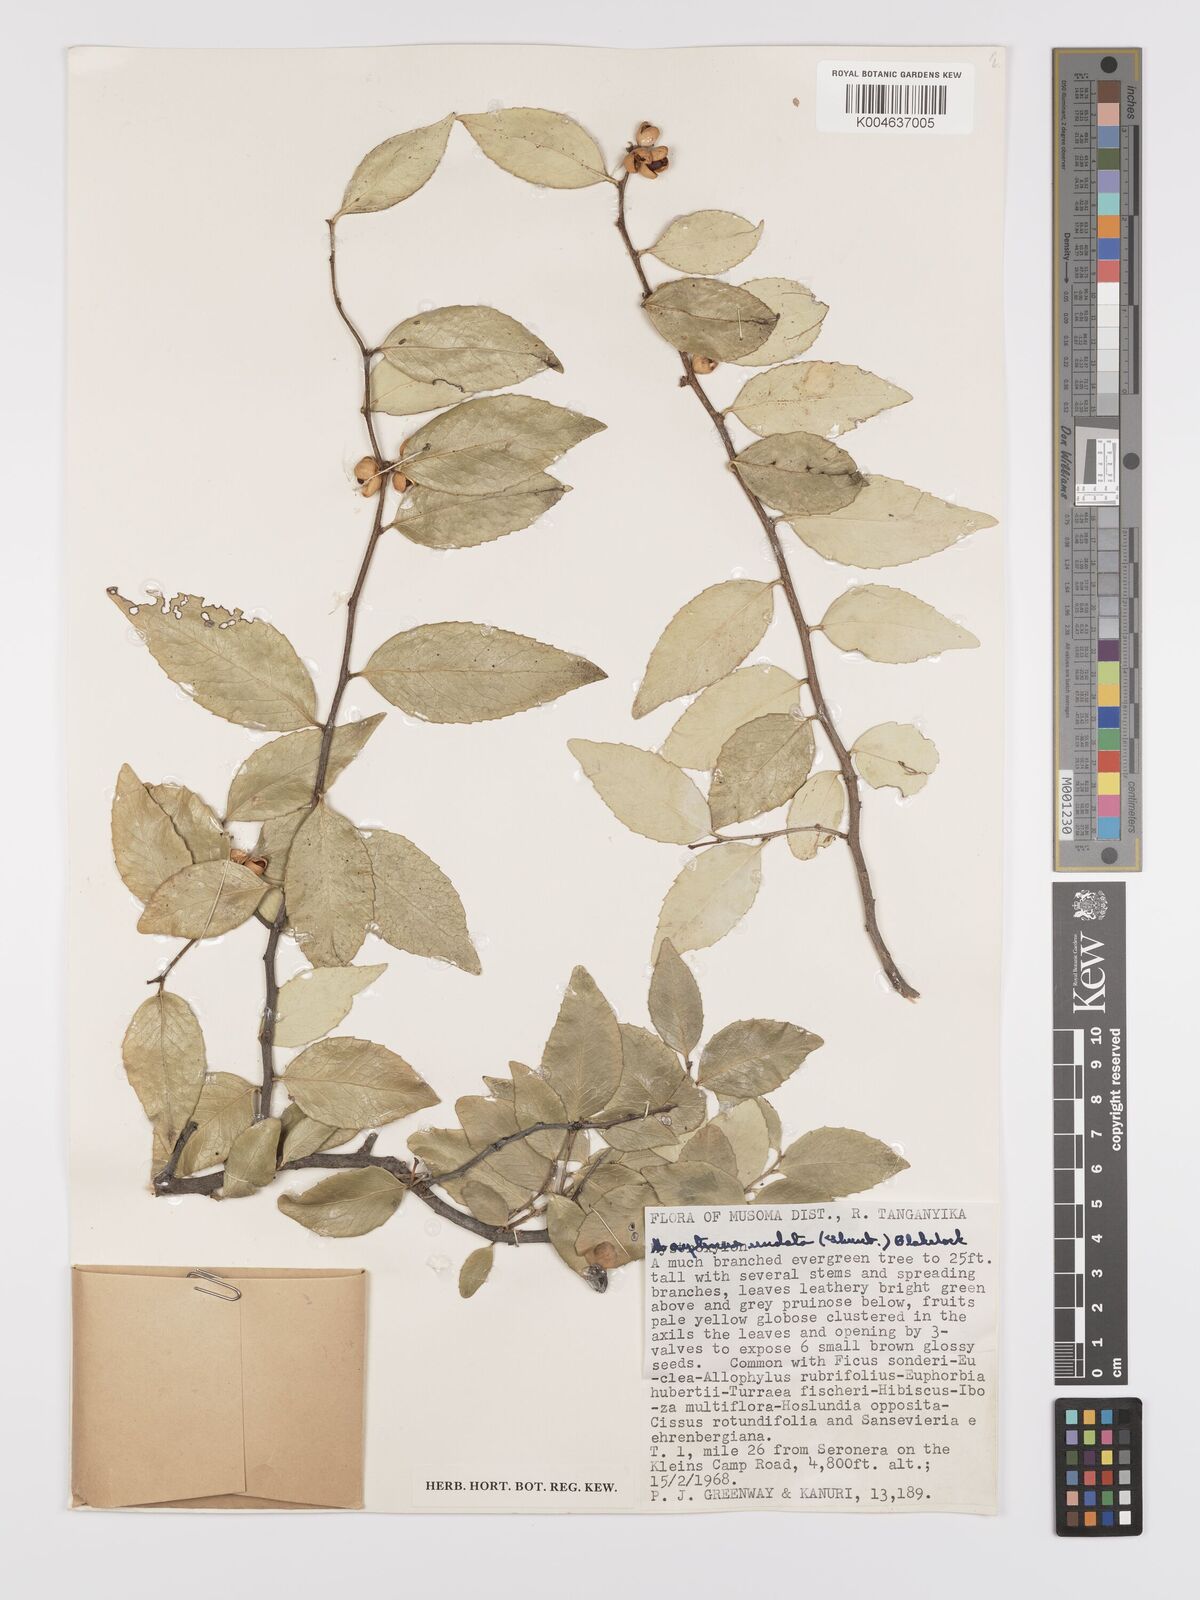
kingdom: Plantae
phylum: Tracheophyta
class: Magnoliopsida
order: Celastrales
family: Celastraceae
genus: Gymnosporia
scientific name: Gymnosporia undata
